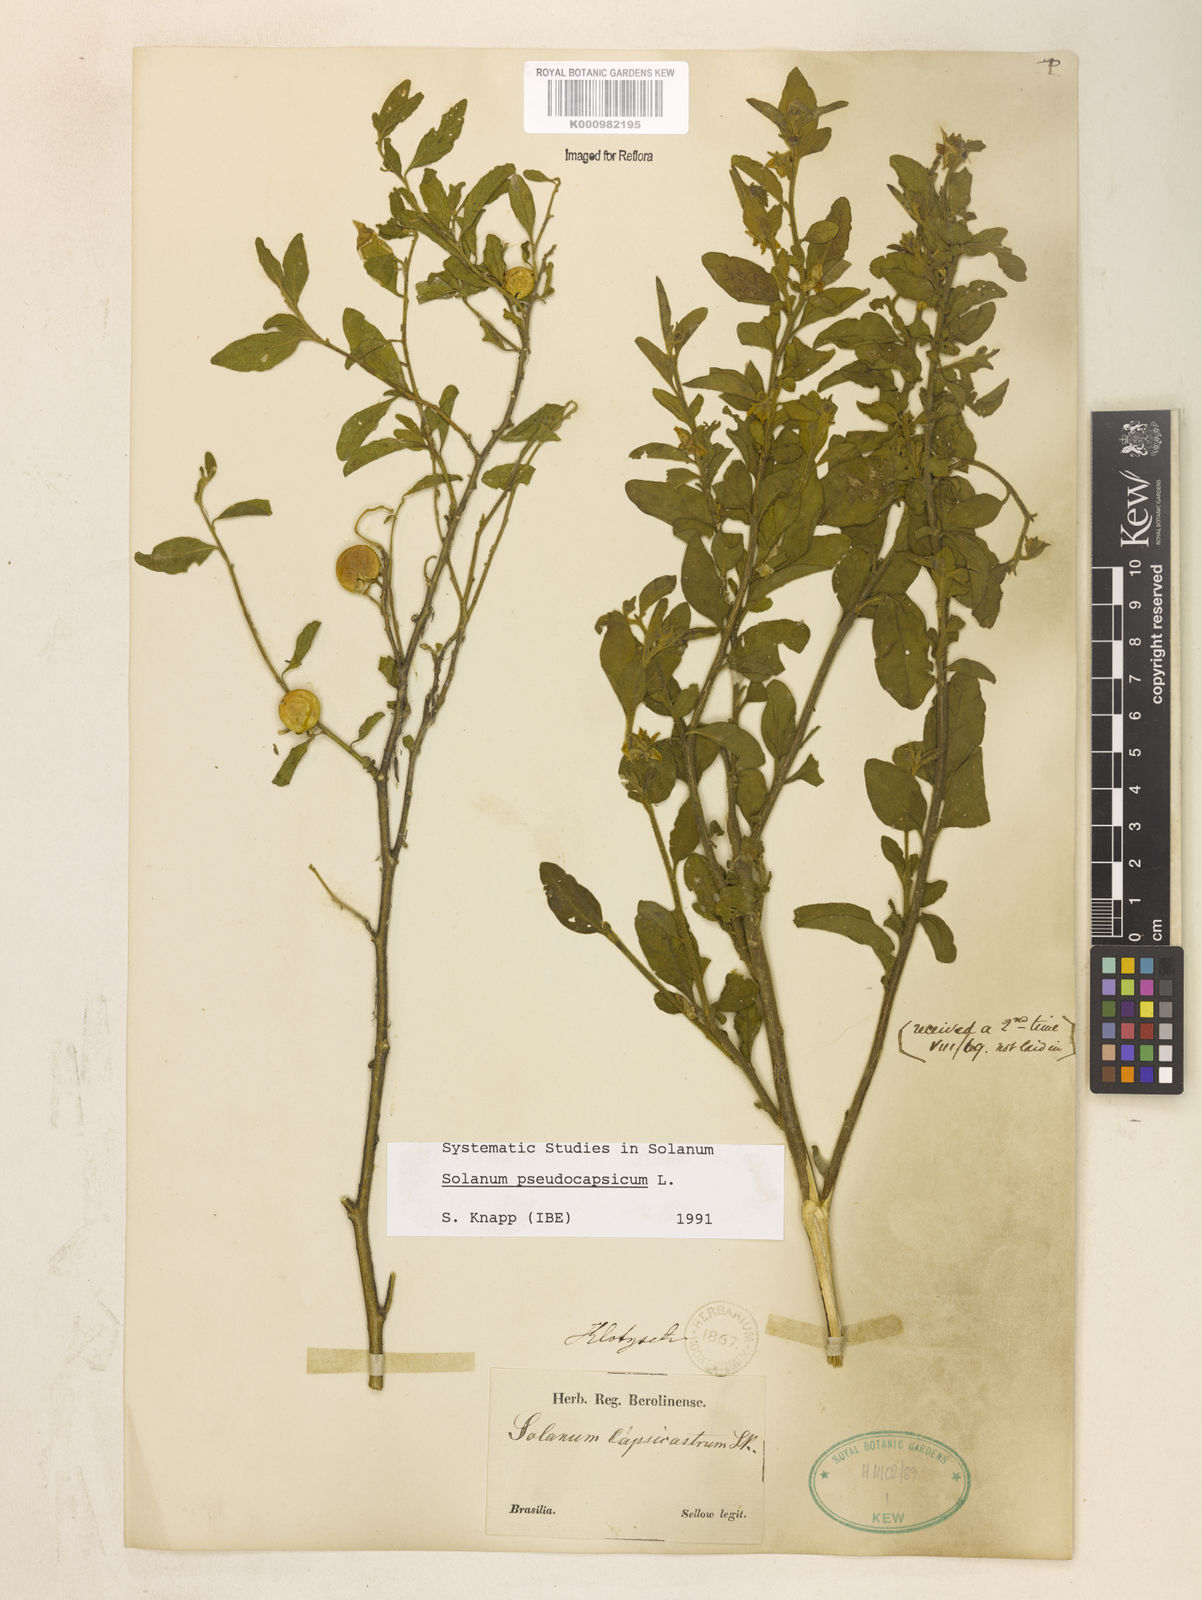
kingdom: Plantae
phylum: Tracheophyta
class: Magnoliopsida
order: Solanales
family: Solanaceae
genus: Solanum
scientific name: Solanum pseudocapsicum
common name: Jerusalem cherry
